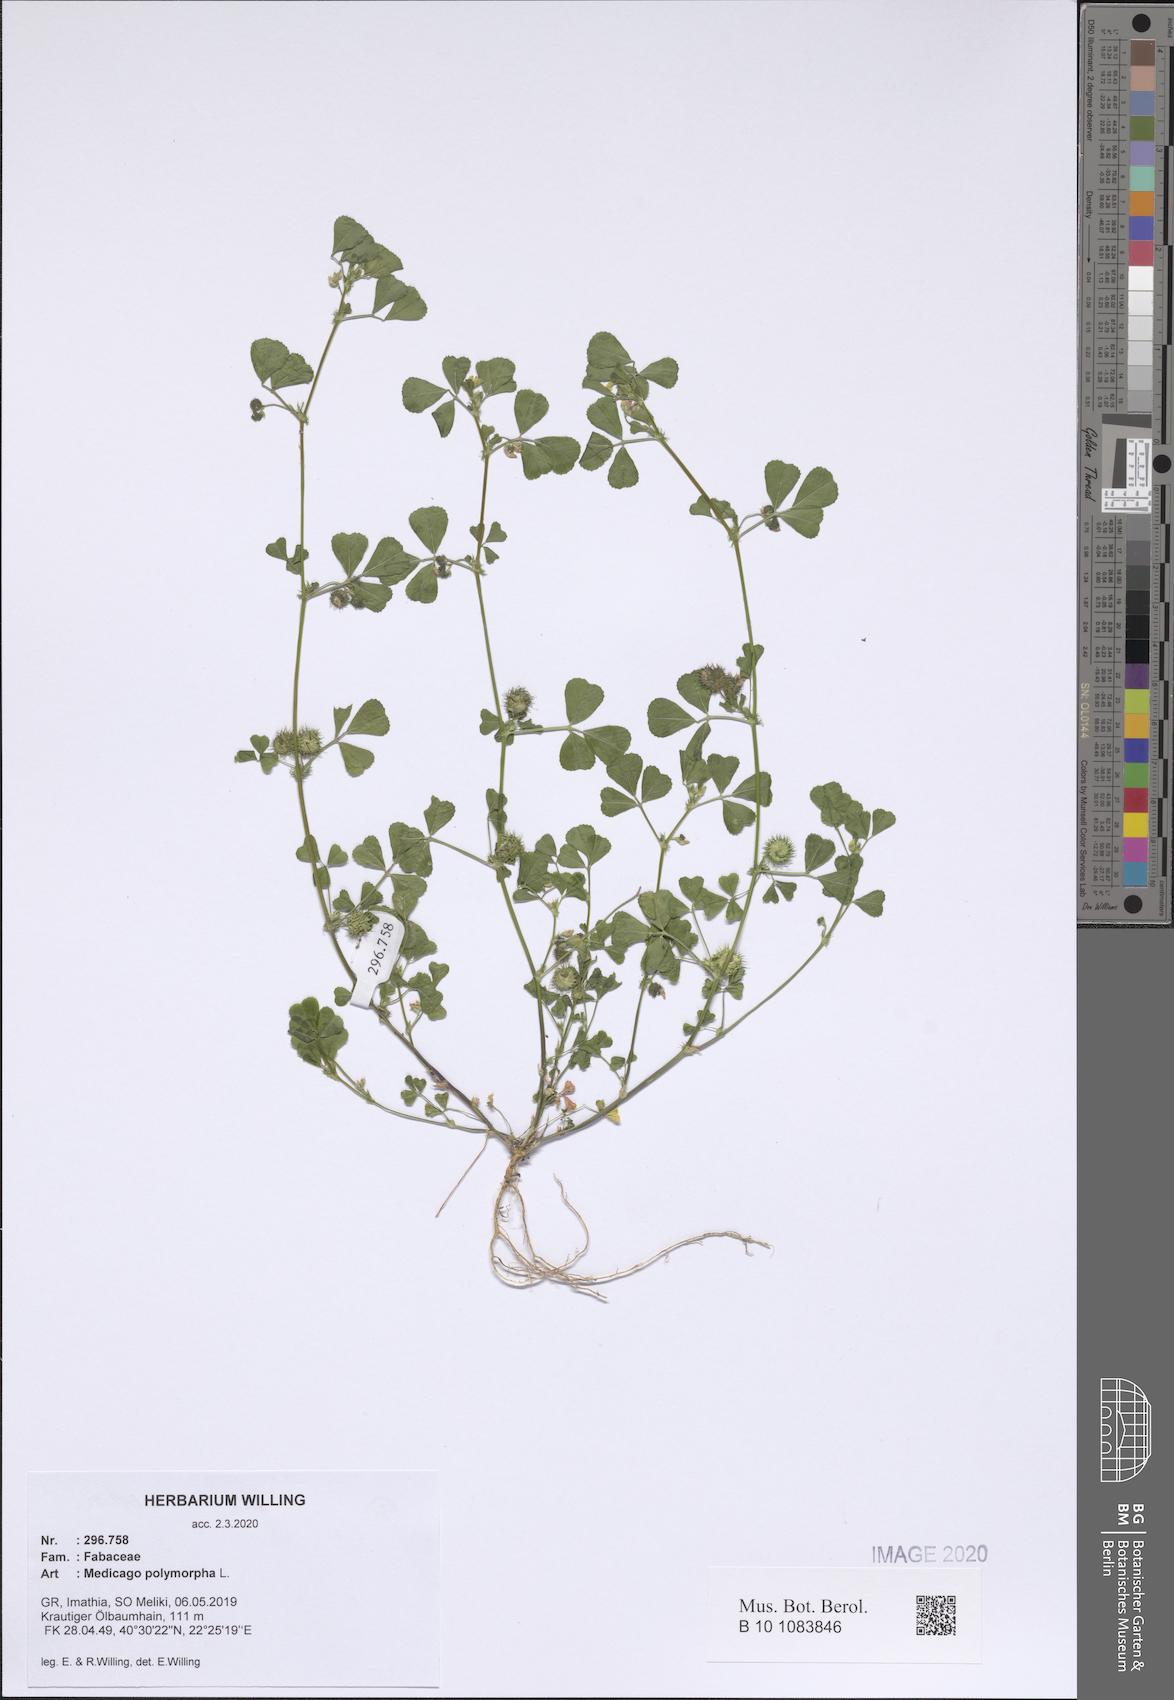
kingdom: Plantae
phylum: Tracheophyta
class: Magnoliopsida
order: Fabales
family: Fabaceae
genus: Medicago
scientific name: Medicago polymorpha
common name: Burclover
